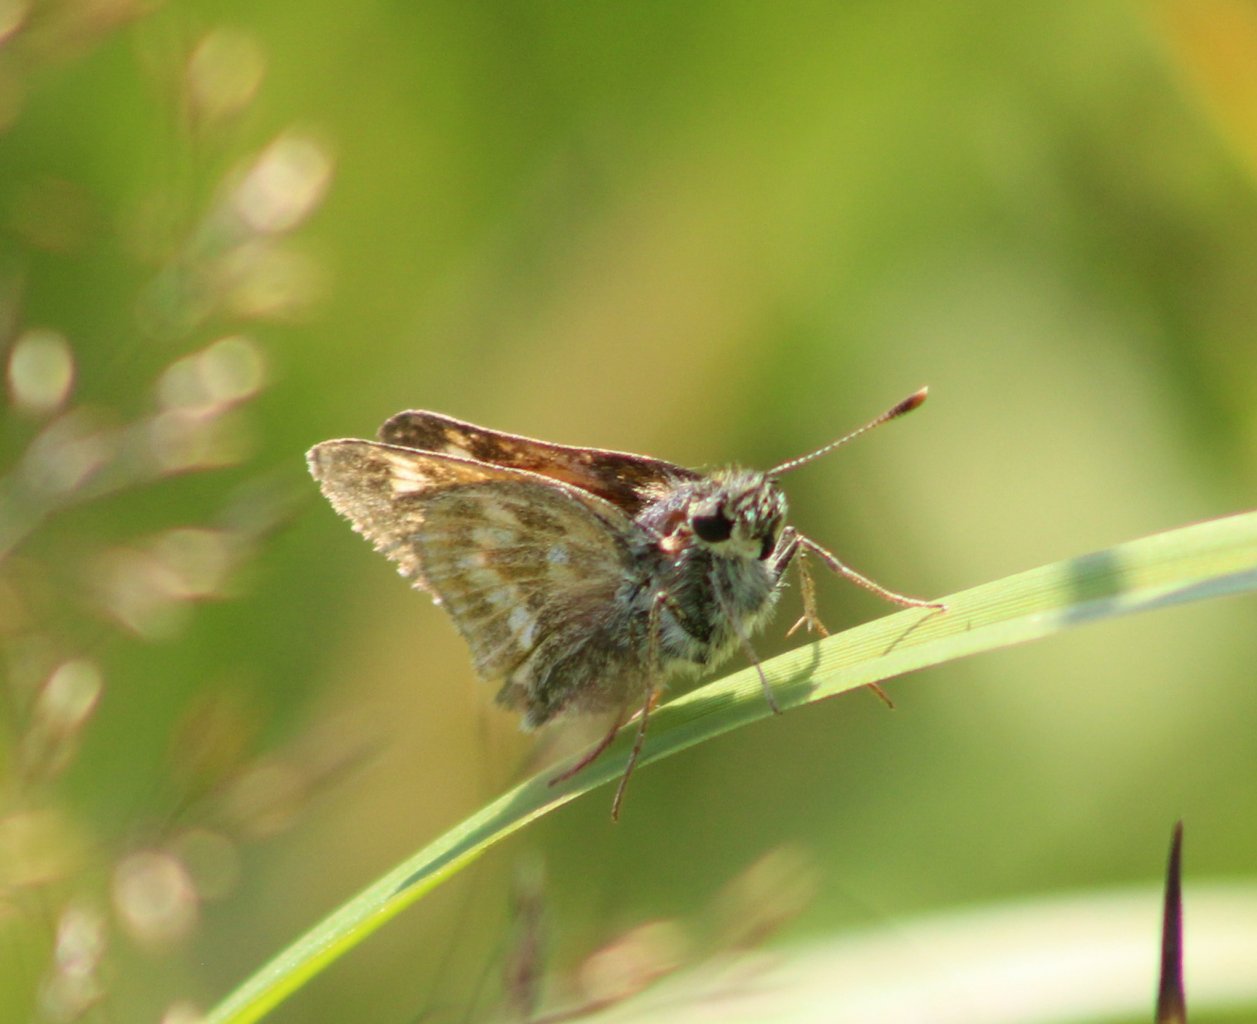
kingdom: Animalia
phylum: Arthropoda
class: Insecta
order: Lepidoptera
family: Hesperiidae
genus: Polites
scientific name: Polites
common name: Long Dash Skipper
